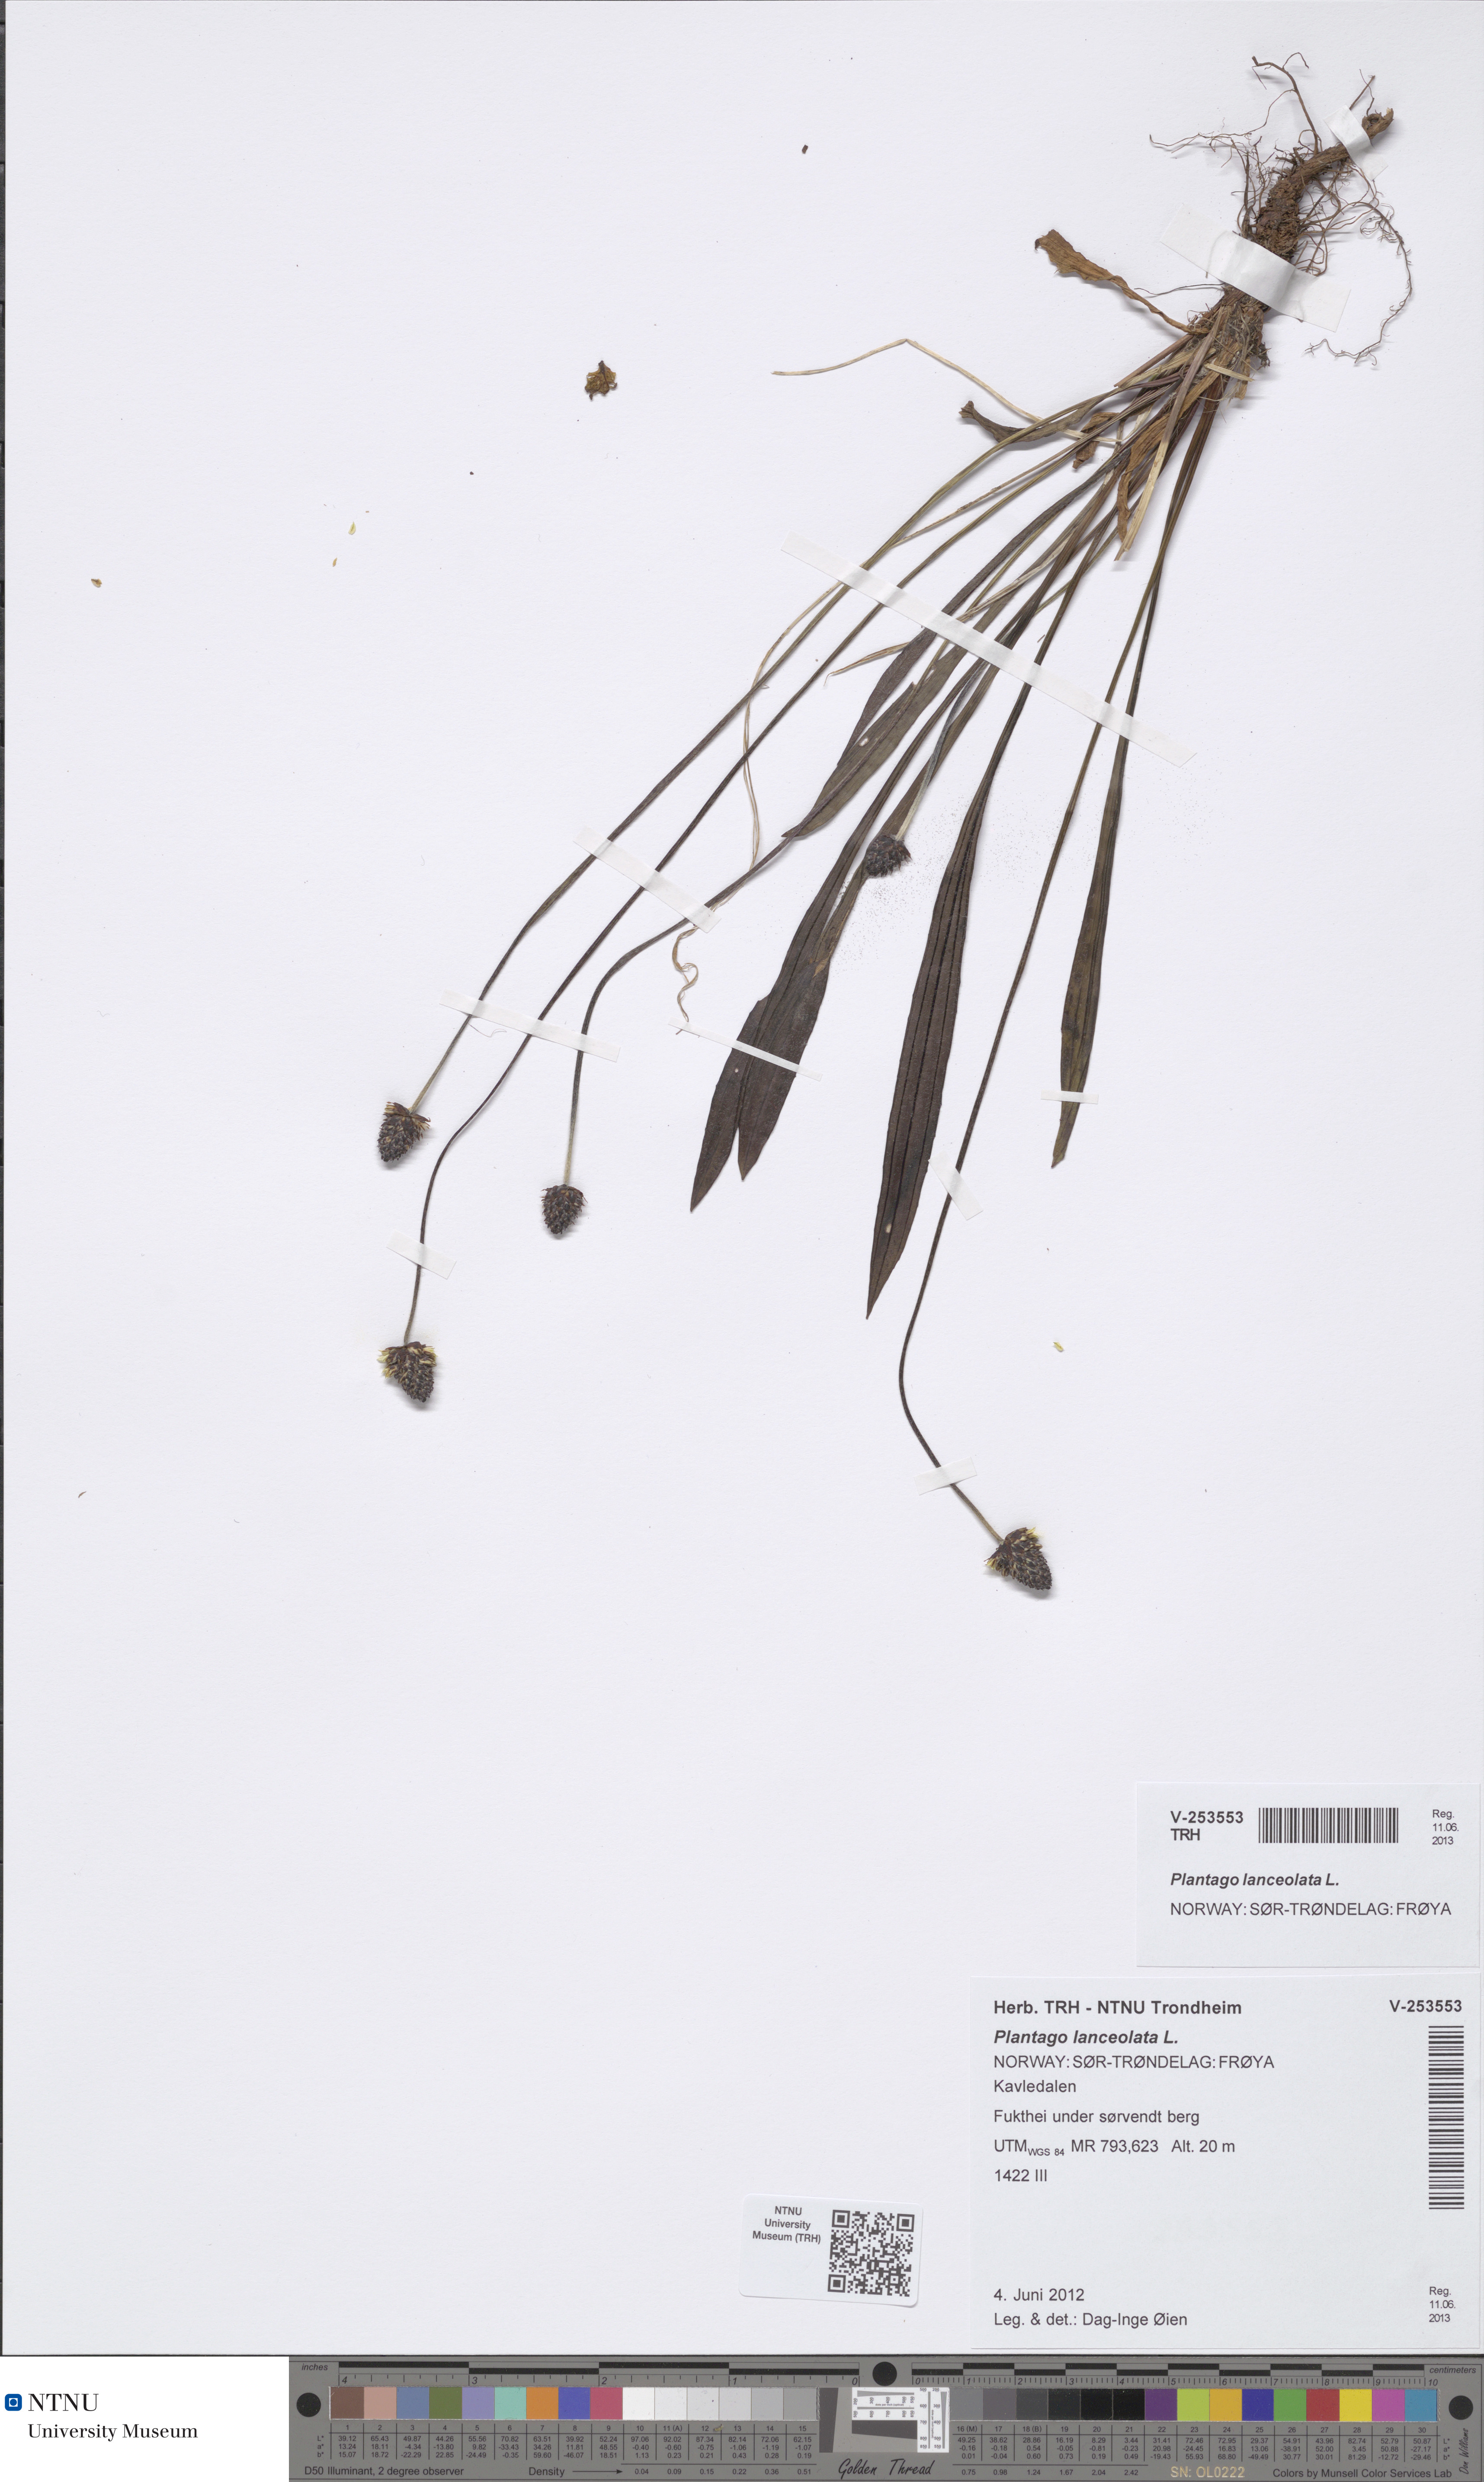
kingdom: Plantae
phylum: Tracheophyta
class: Magnoliopsida
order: Lamiales
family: Plantaginaceae
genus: Plantago
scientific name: Plantago lanceolata
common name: Ribwort plantain
